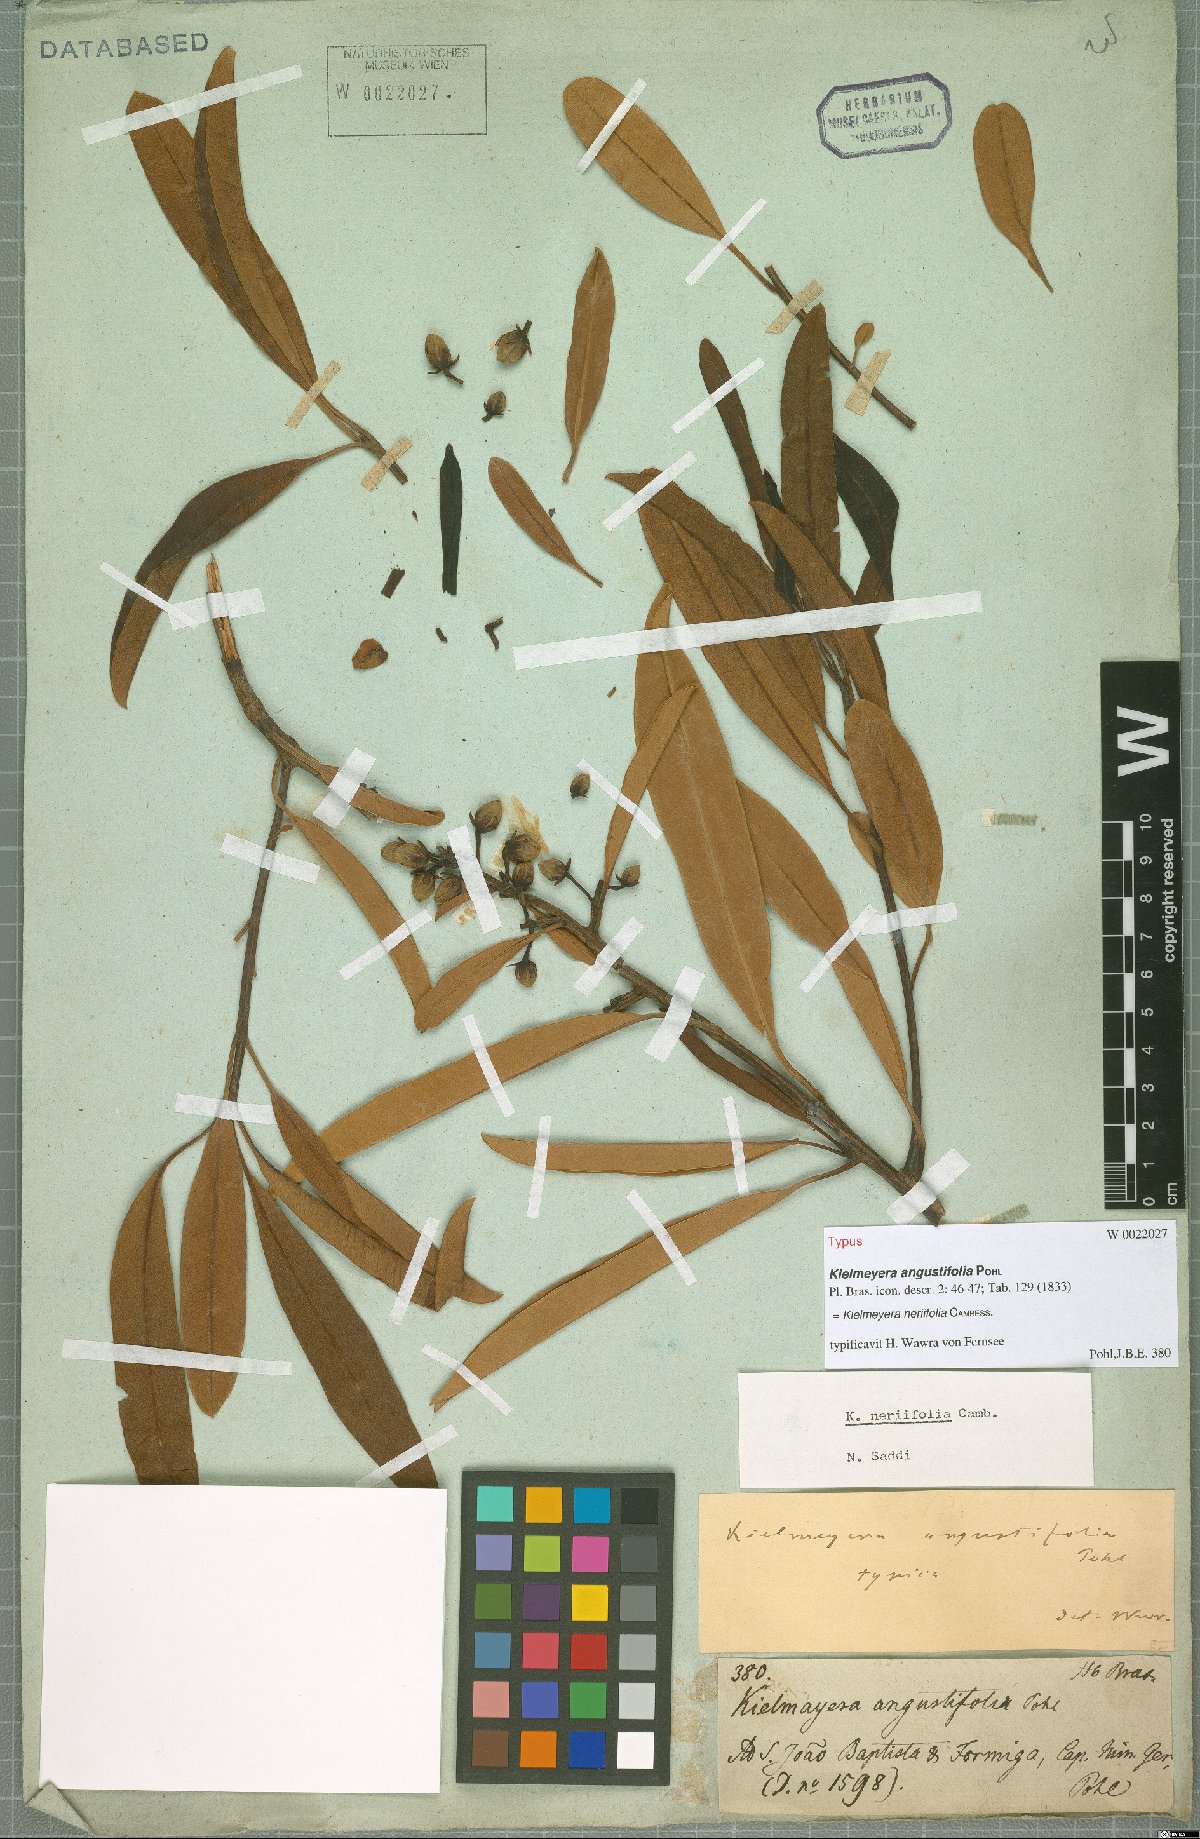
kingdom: Plantae
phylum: Tracheophyta
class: Magnoliopsida
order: Malpighiales
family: Calophyllaceae
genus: Kielmeyera
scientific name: Kielmeyera neriifolia
